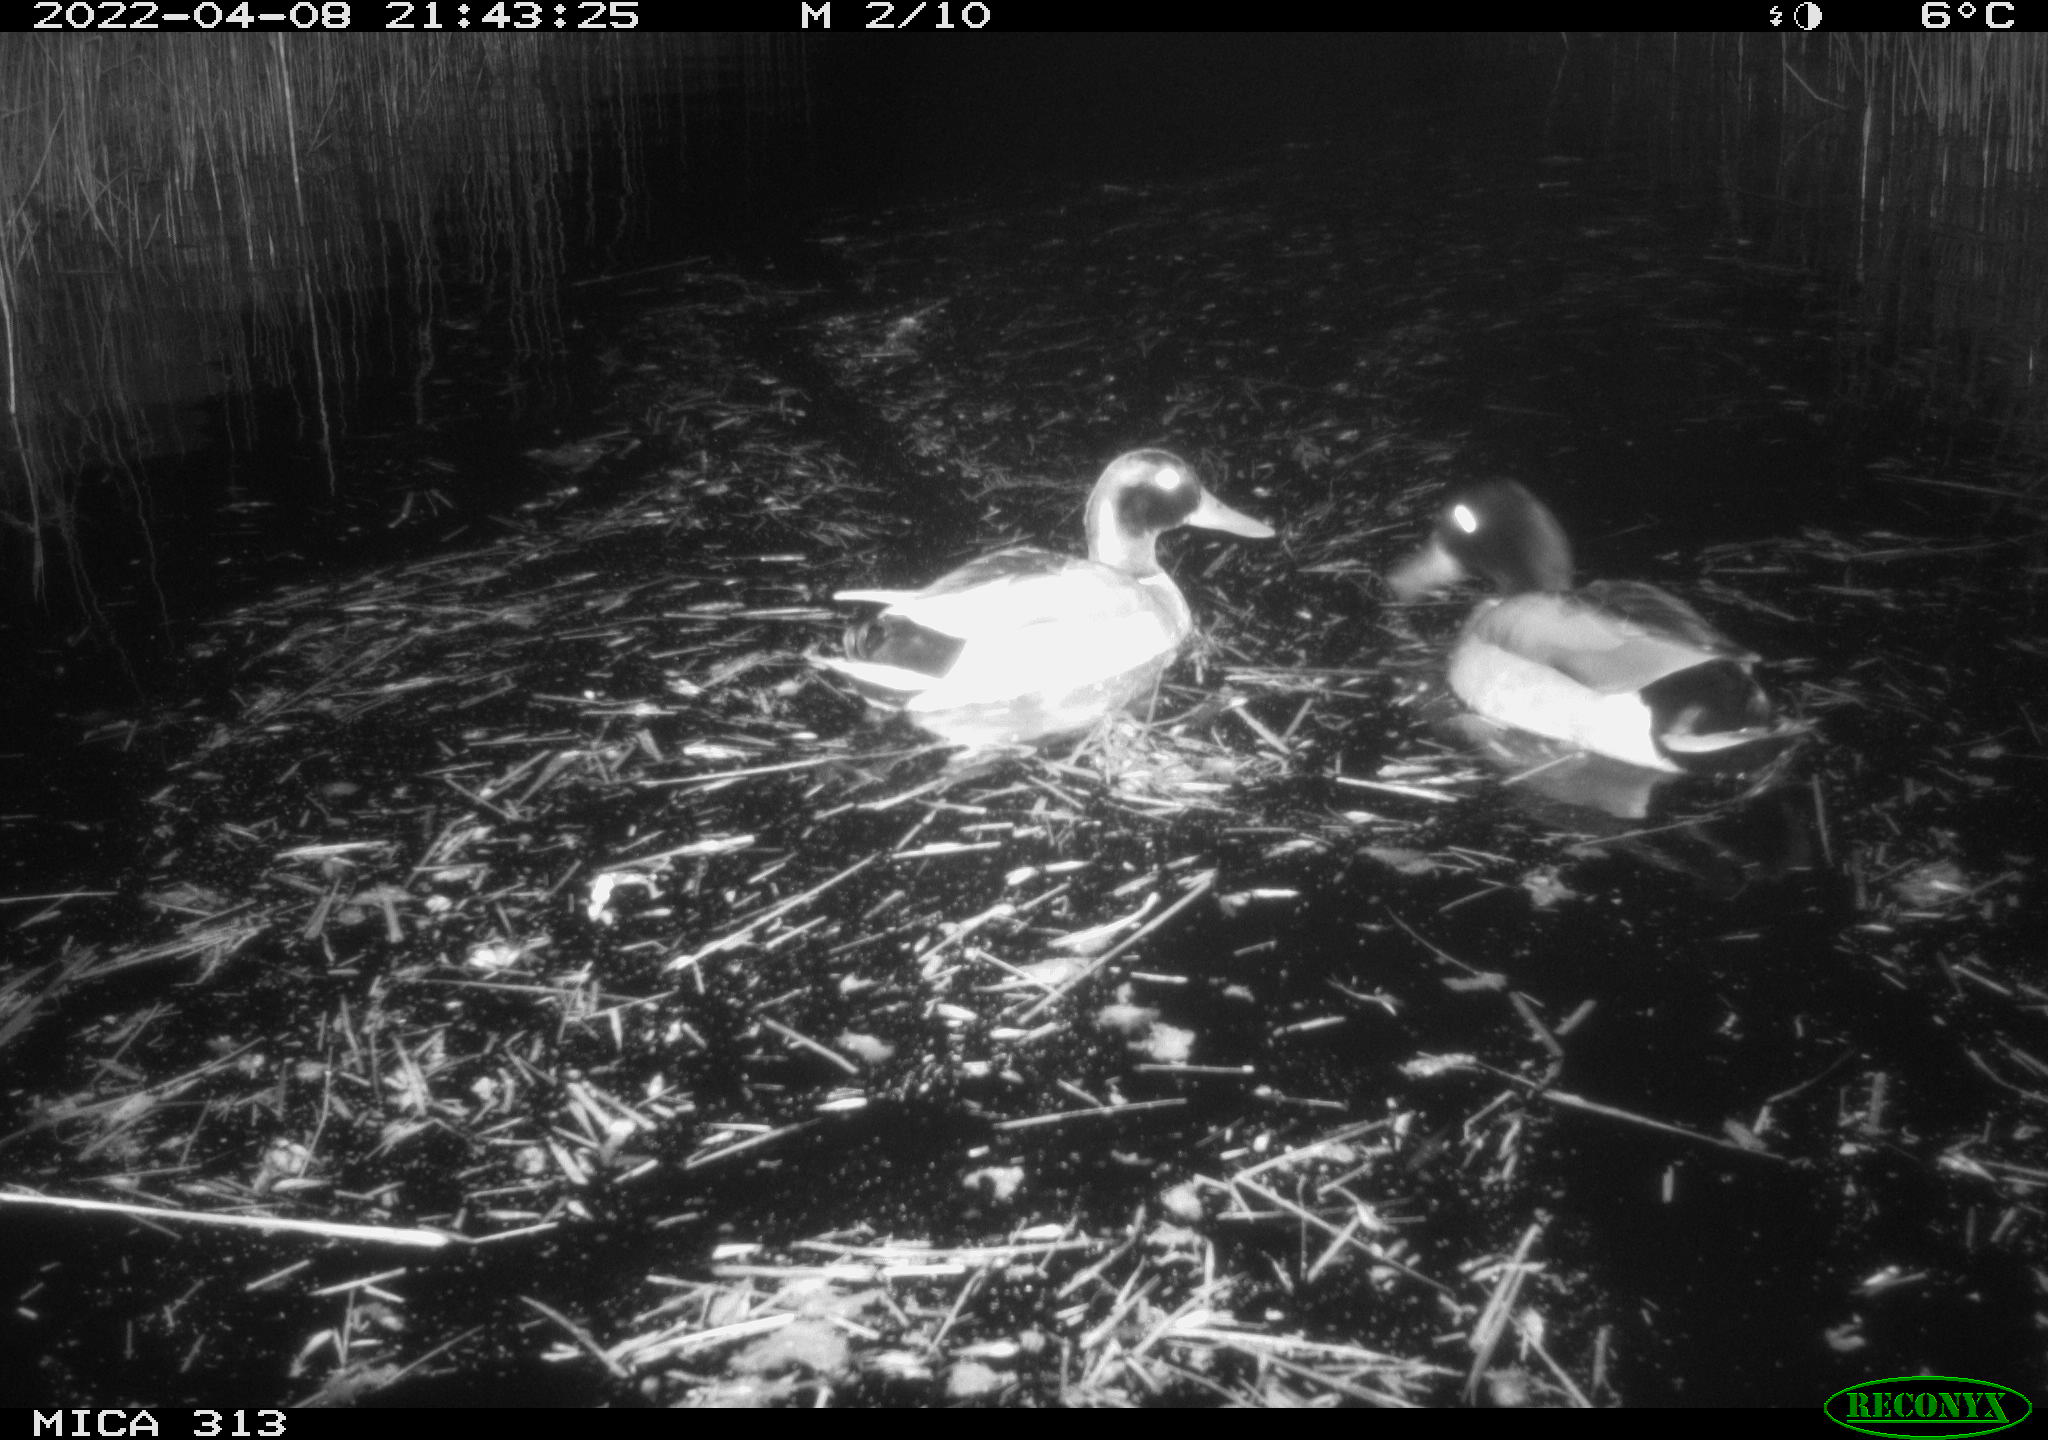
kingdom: Animalia
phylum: Chordata
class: Aves
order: Anseriformes
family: Anatidae
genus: Anas
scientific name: Anas platyrhynchos
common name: Mallard
